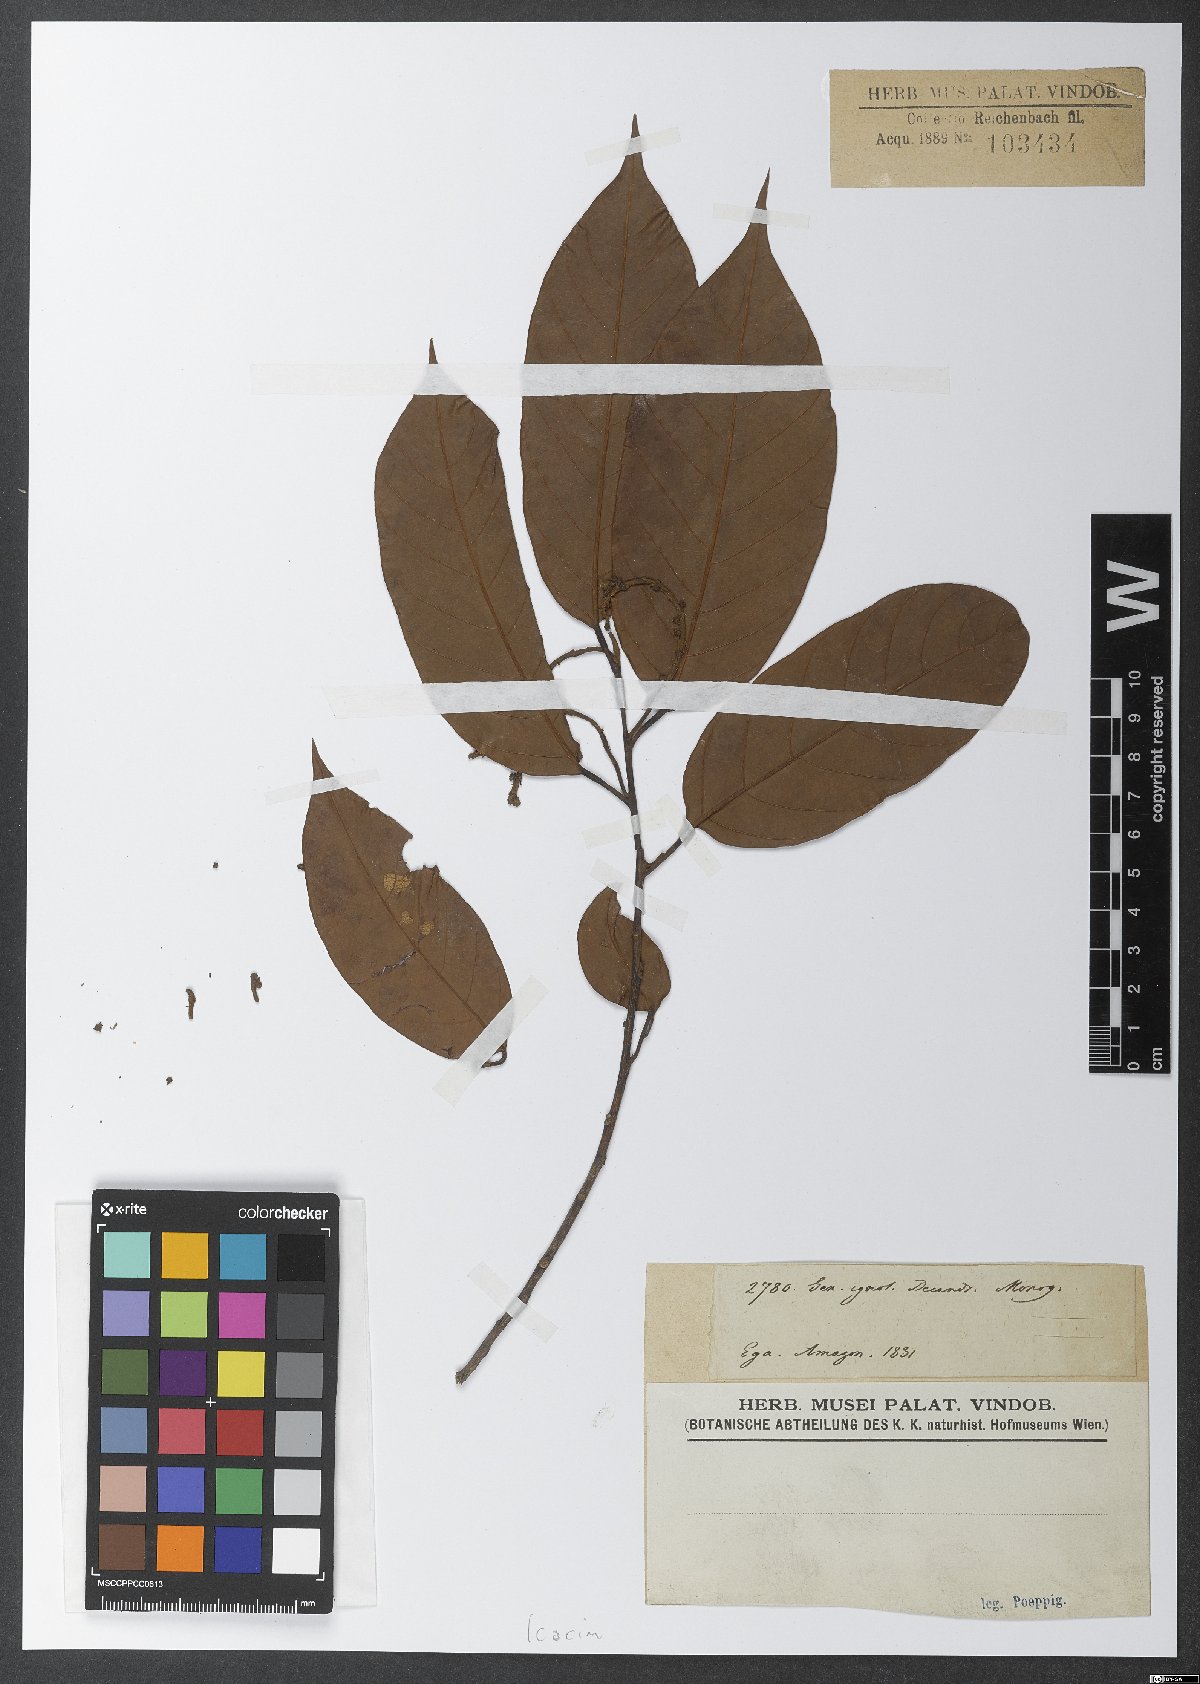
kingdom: Plantae
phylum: Tracheophyta
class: Magnoliopsida
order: Icacinales
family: Icacinaceae
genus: Poraqueiba
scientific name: Poraqueiba
